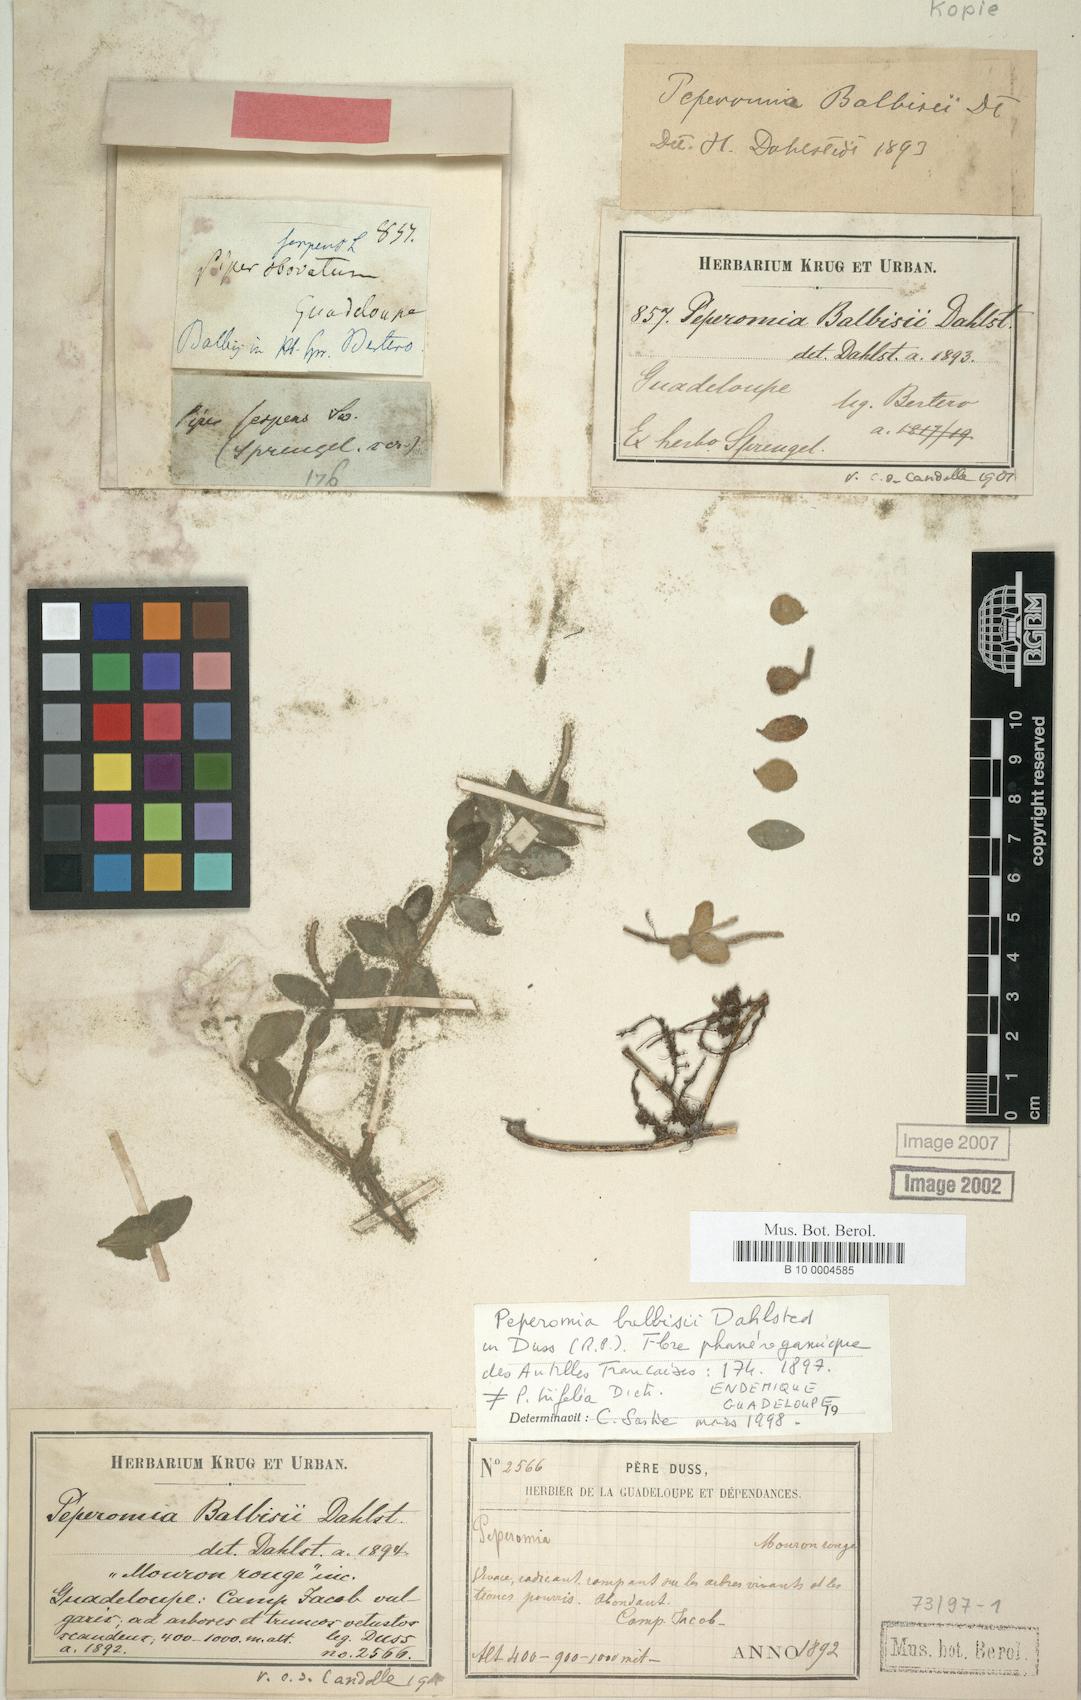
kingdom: Plantae
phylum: Tracheophyta
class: Magnoliopsida
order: Piperales
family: Piperaceae
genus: Peperomia
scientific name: Peperomia trifolia
